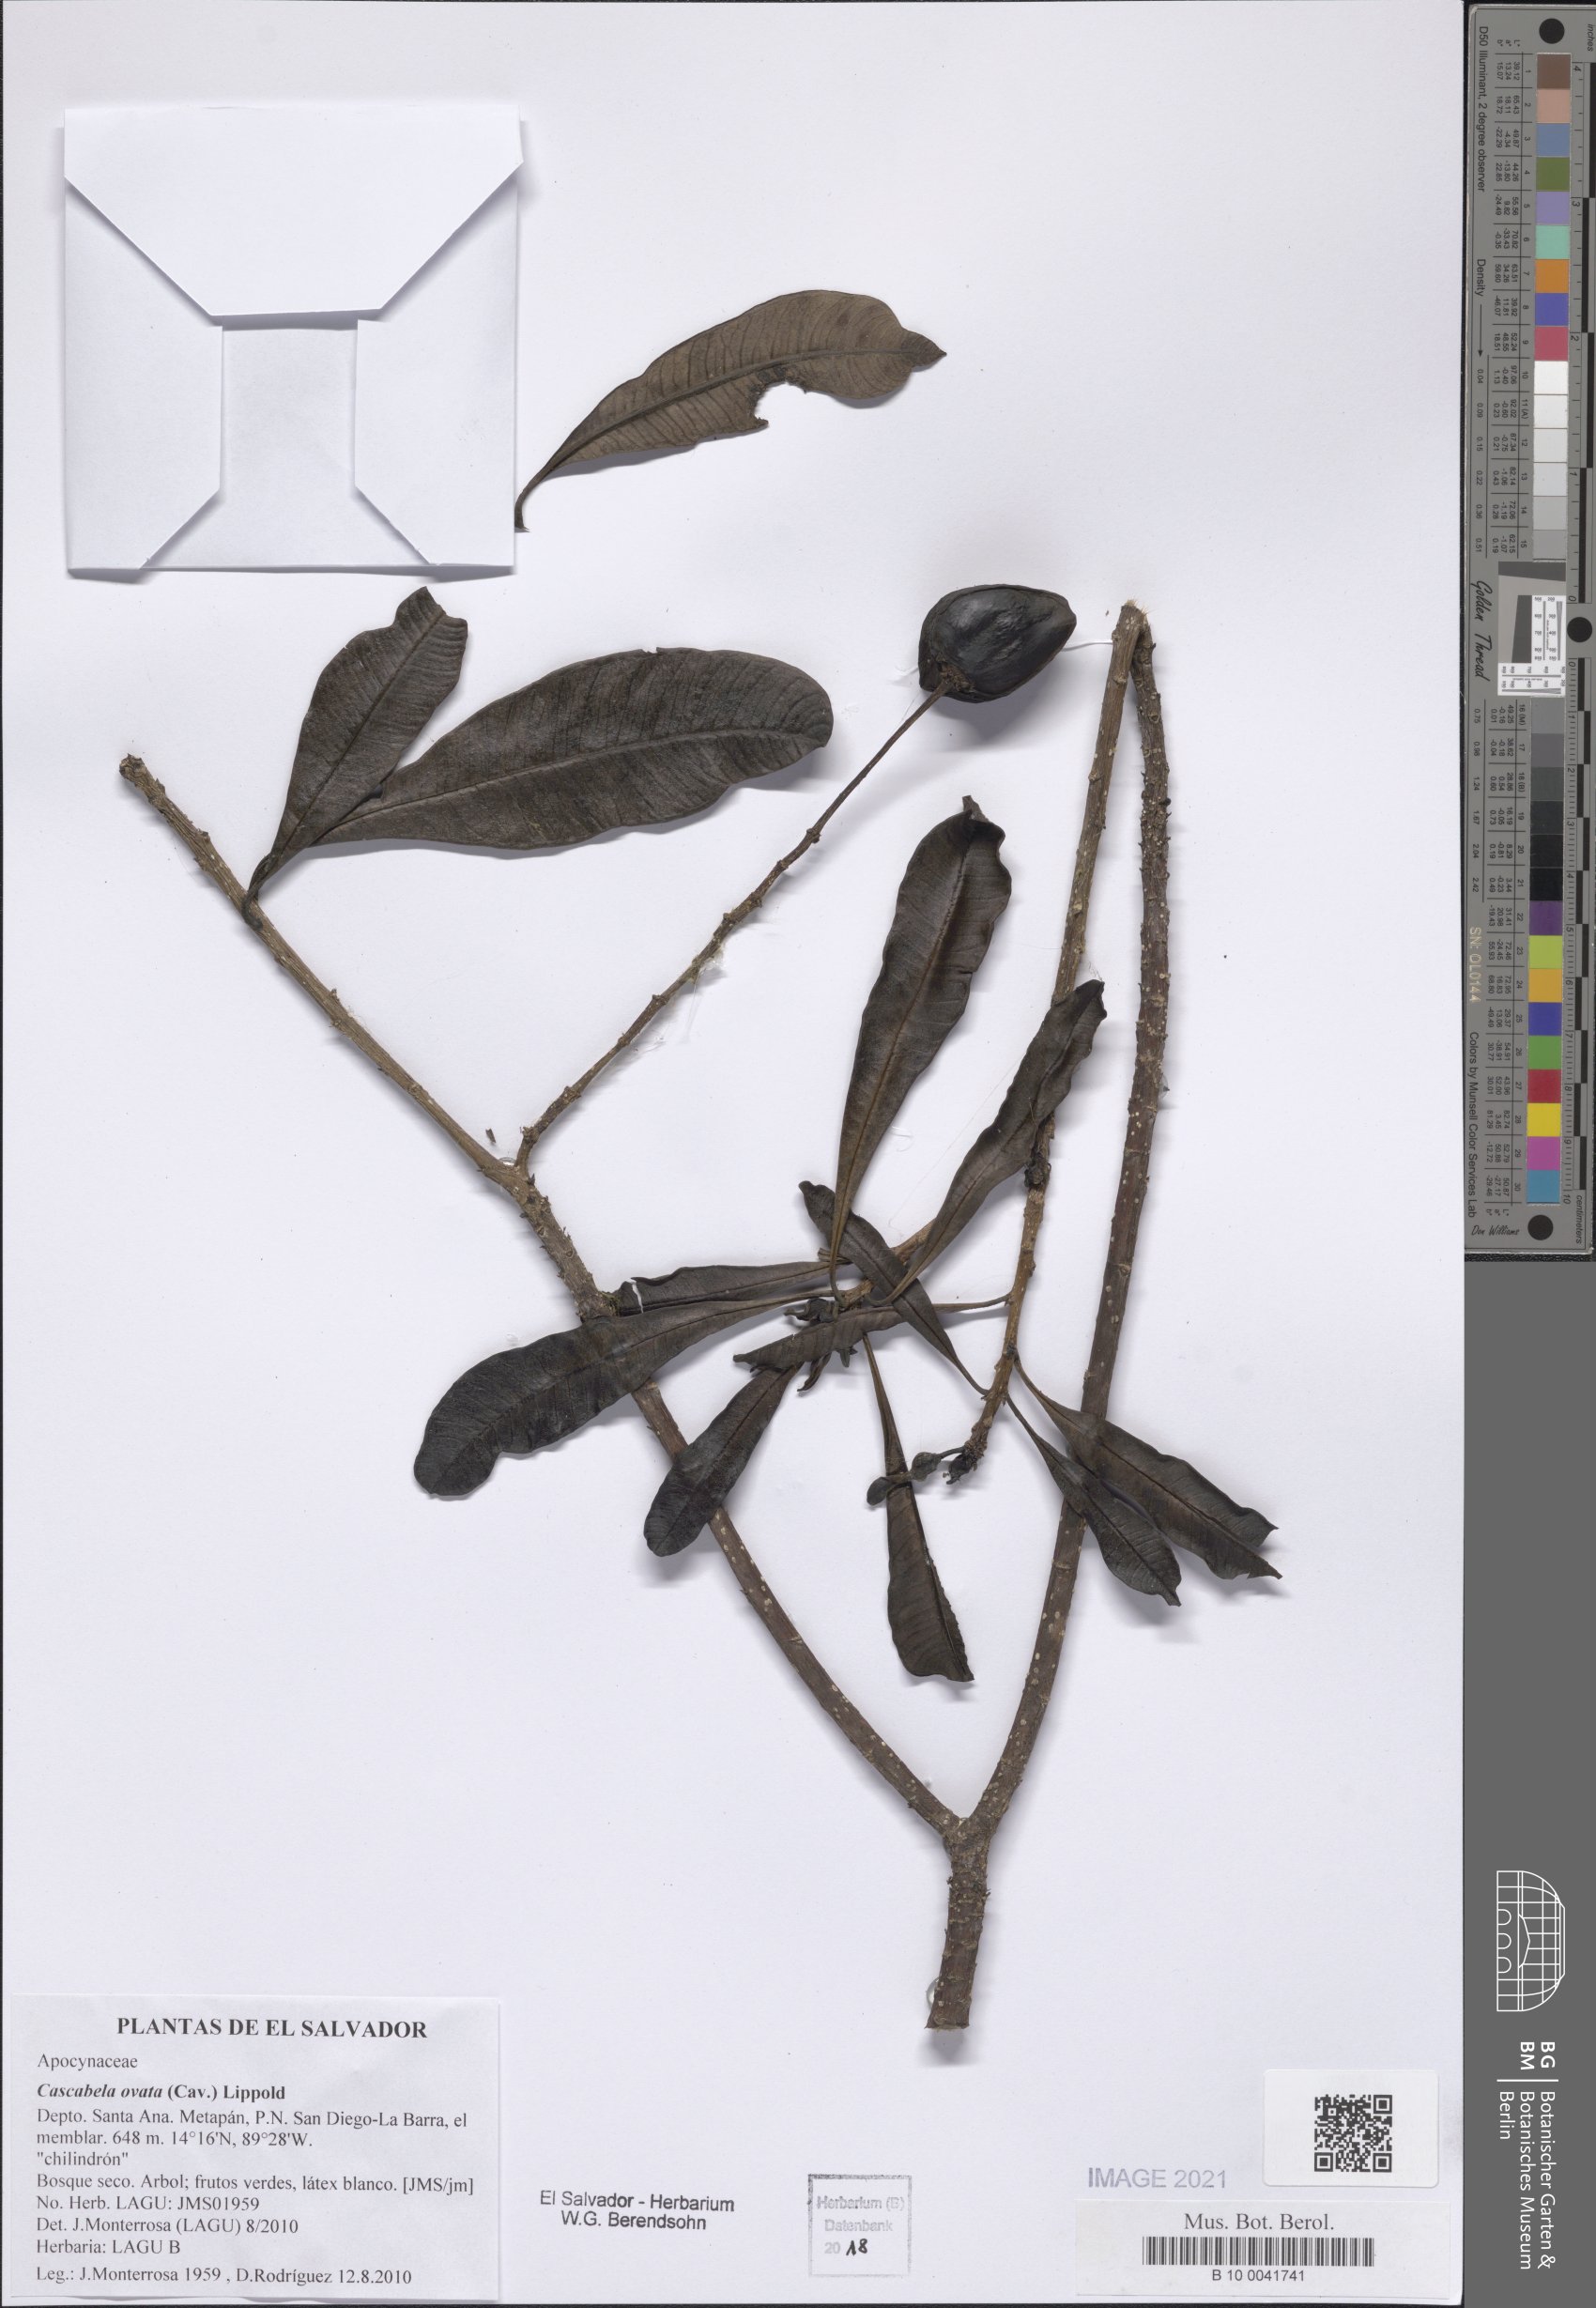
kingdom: Plantae
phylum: Tracheophyta
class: Magnoliopsida
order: Gentianales
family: Apocynaceae
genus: Cascabela
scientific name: Cascabela ovata
